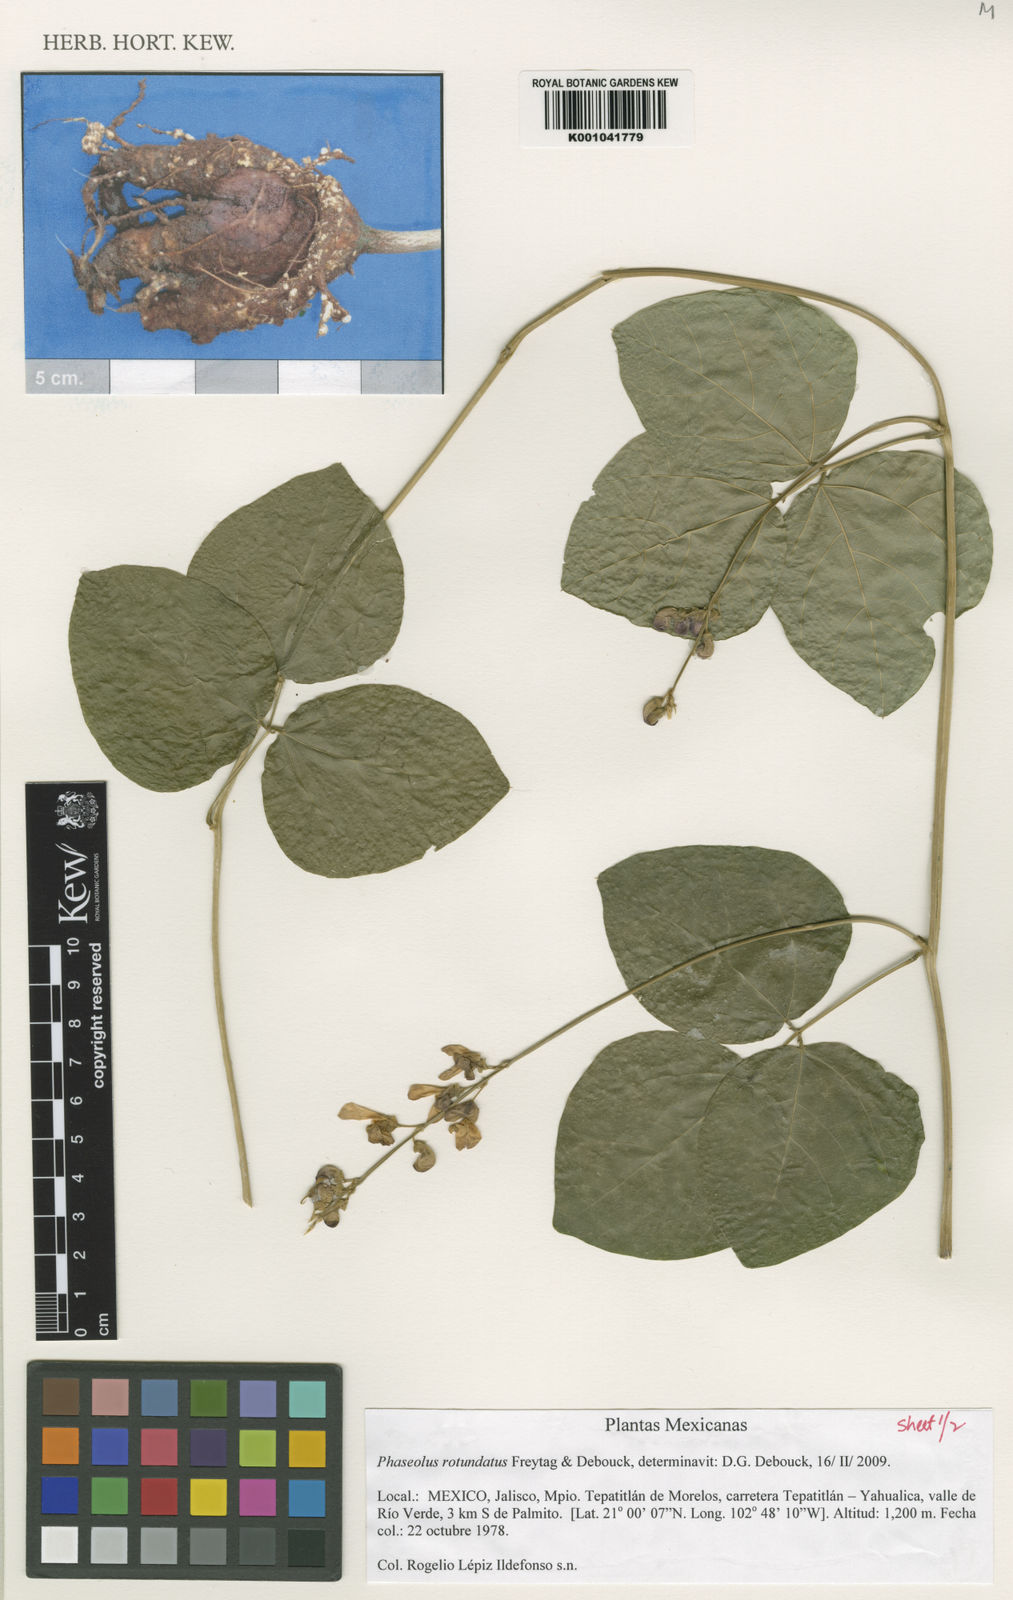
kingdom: Plantae
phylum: Tracheophyta
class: Magnoliopsida
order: Fabales
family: Fabaceae
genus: Phaseolus
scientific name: Phaseolus rotundatus
